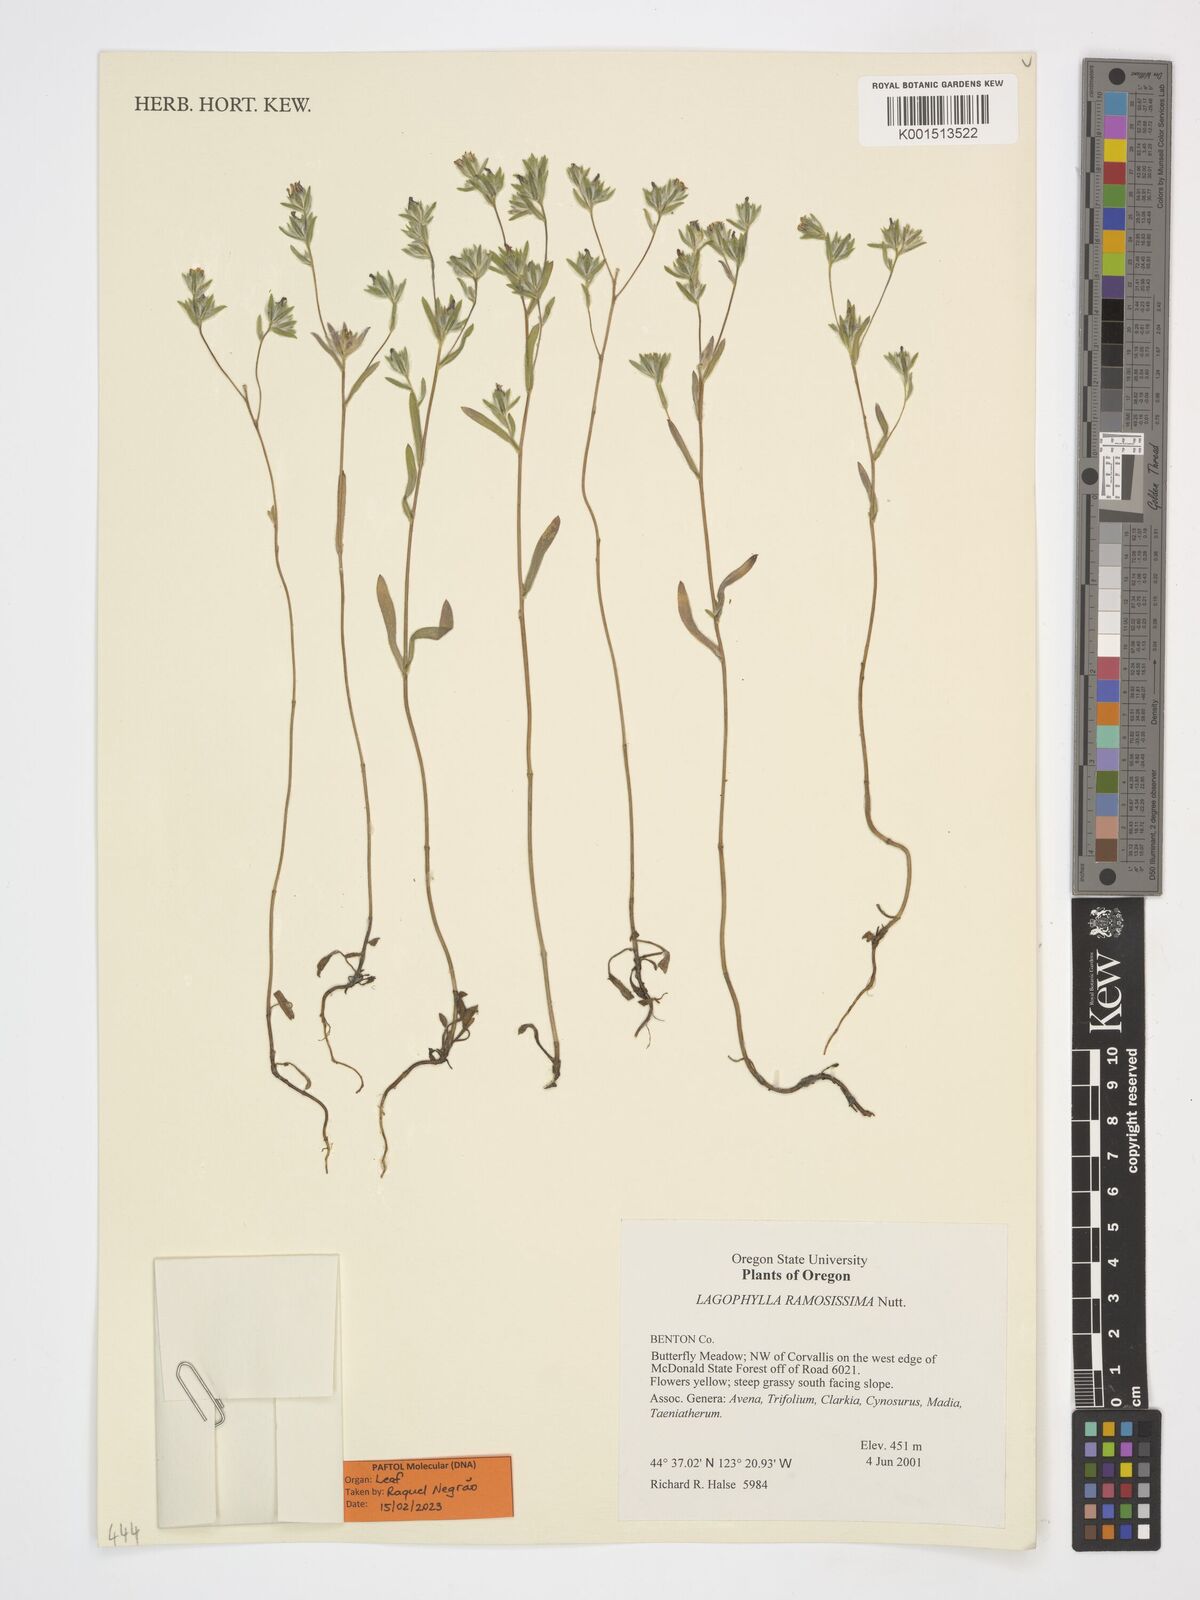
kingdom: Plantae
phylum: Tracheophyta
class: Magnoliopsida
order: Asterales
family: Asteraceae
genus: Lagophylla
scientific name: Lagophylla ramosissima
